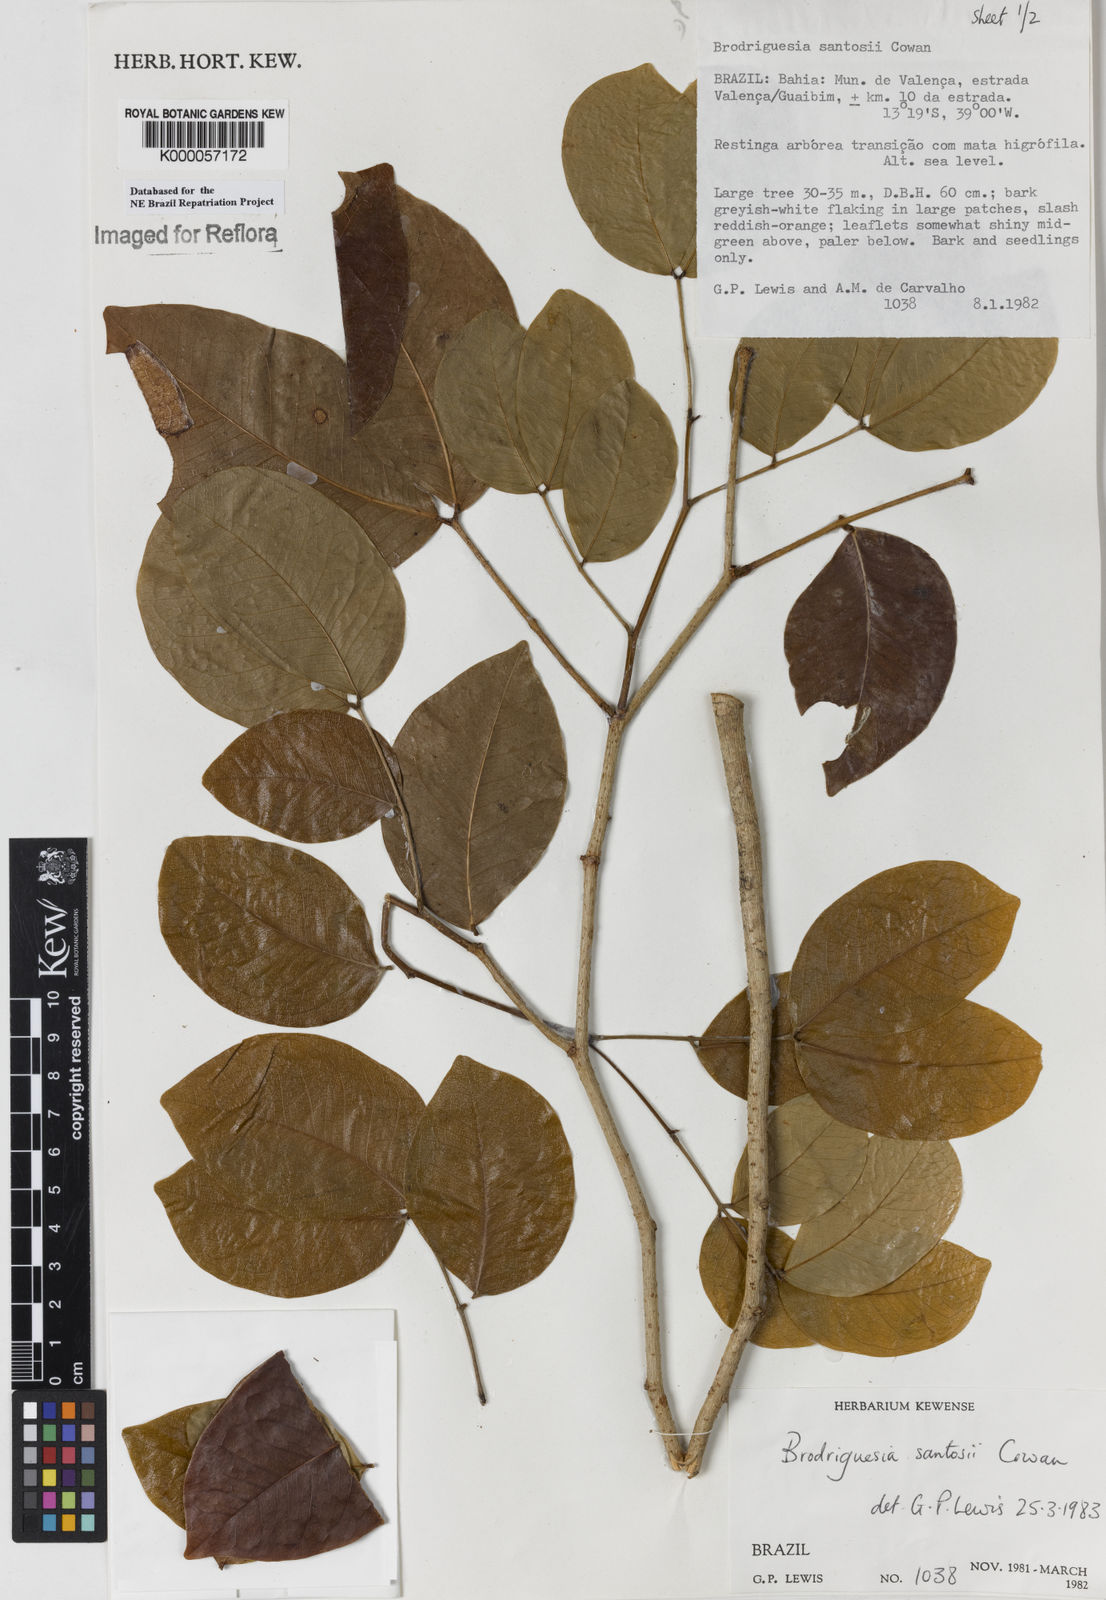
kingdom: Plantae
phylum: Tracheophyta
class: Magnoliopsida
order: Fabales
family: Fabaceae
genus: Brodriguesia
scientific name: Brodriguesia santosii
